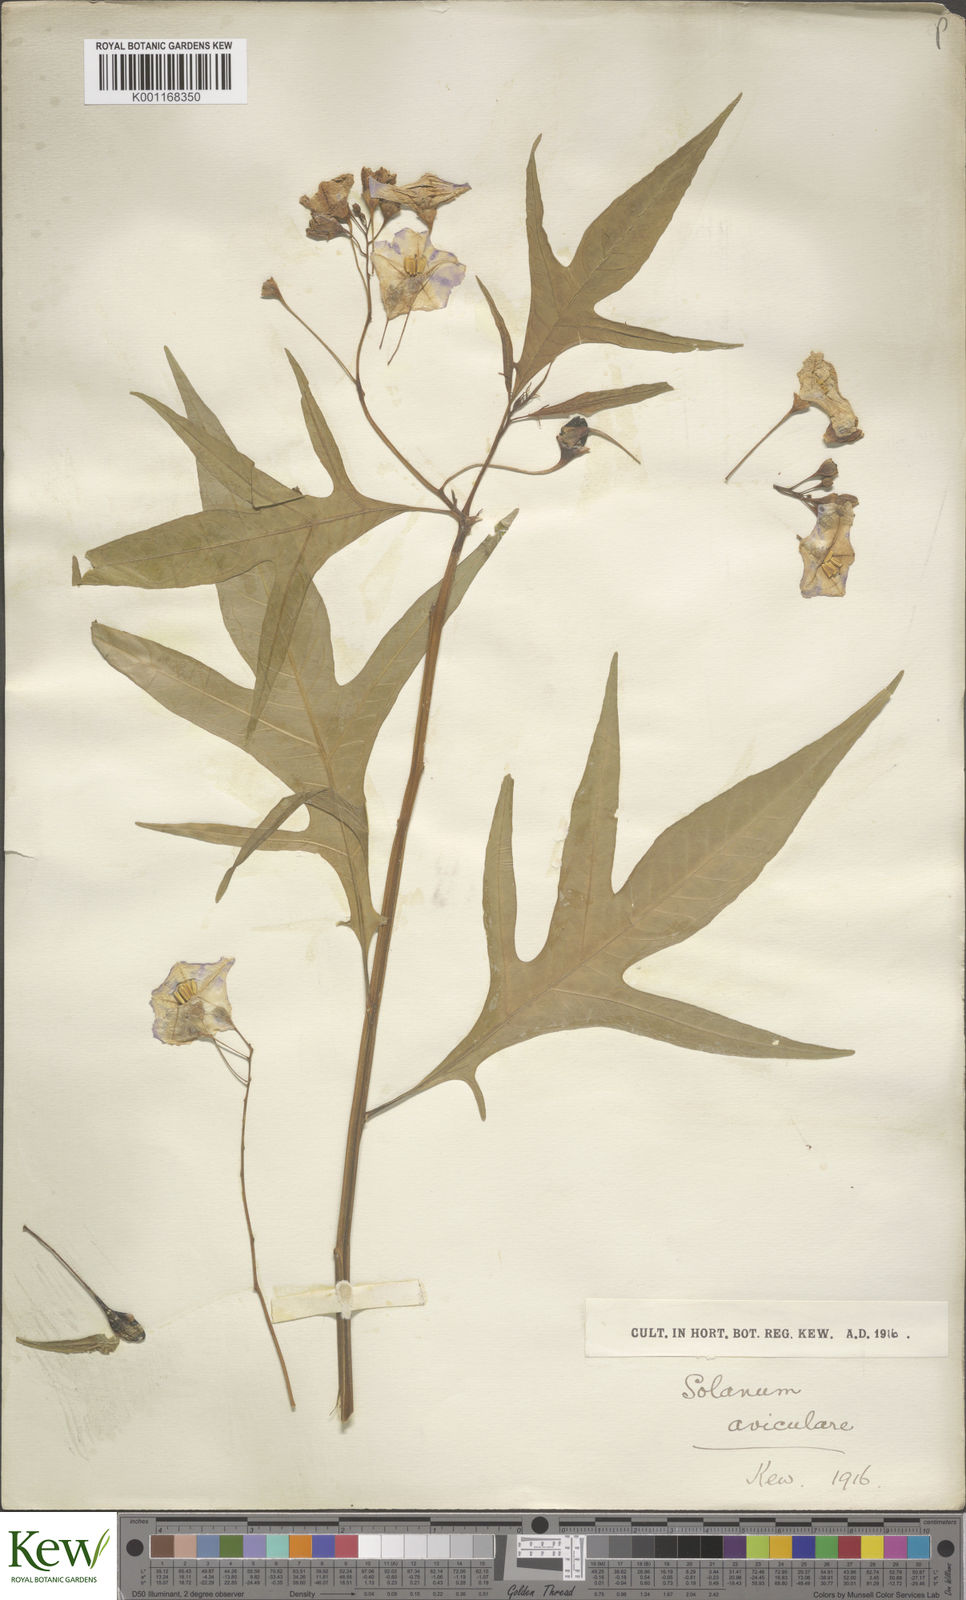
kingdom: Plantae
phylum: Tracheophyta
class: Magnoliopsida
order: Solanales
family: Solanaceae
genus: Solanum
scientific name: Solanum aviculare
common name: New zealand nightshade
